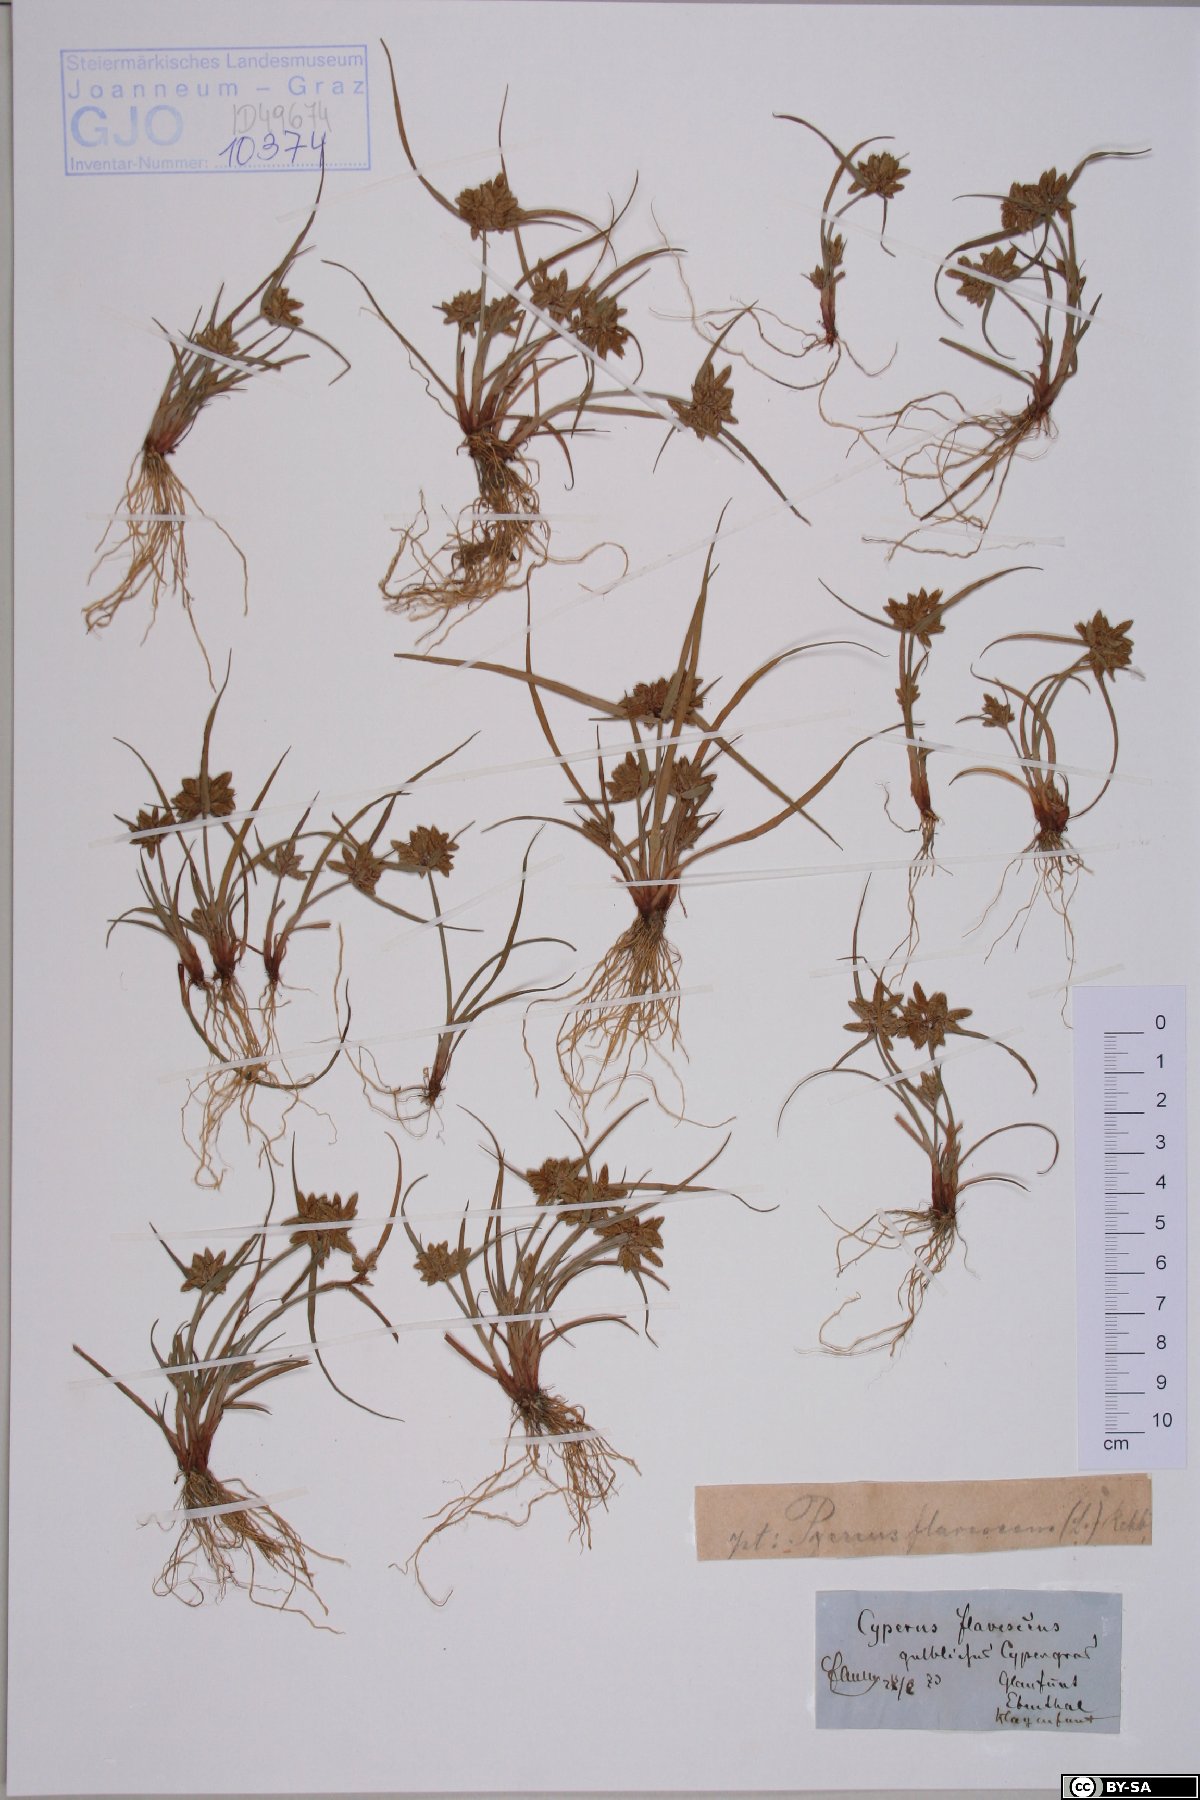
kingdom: Plantae
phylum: Tracheophyta
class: Liliopsida
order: Poales
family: Cyperaceae
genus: Cyperus
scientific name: Cyperus flavescens
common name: Yellow galingale
